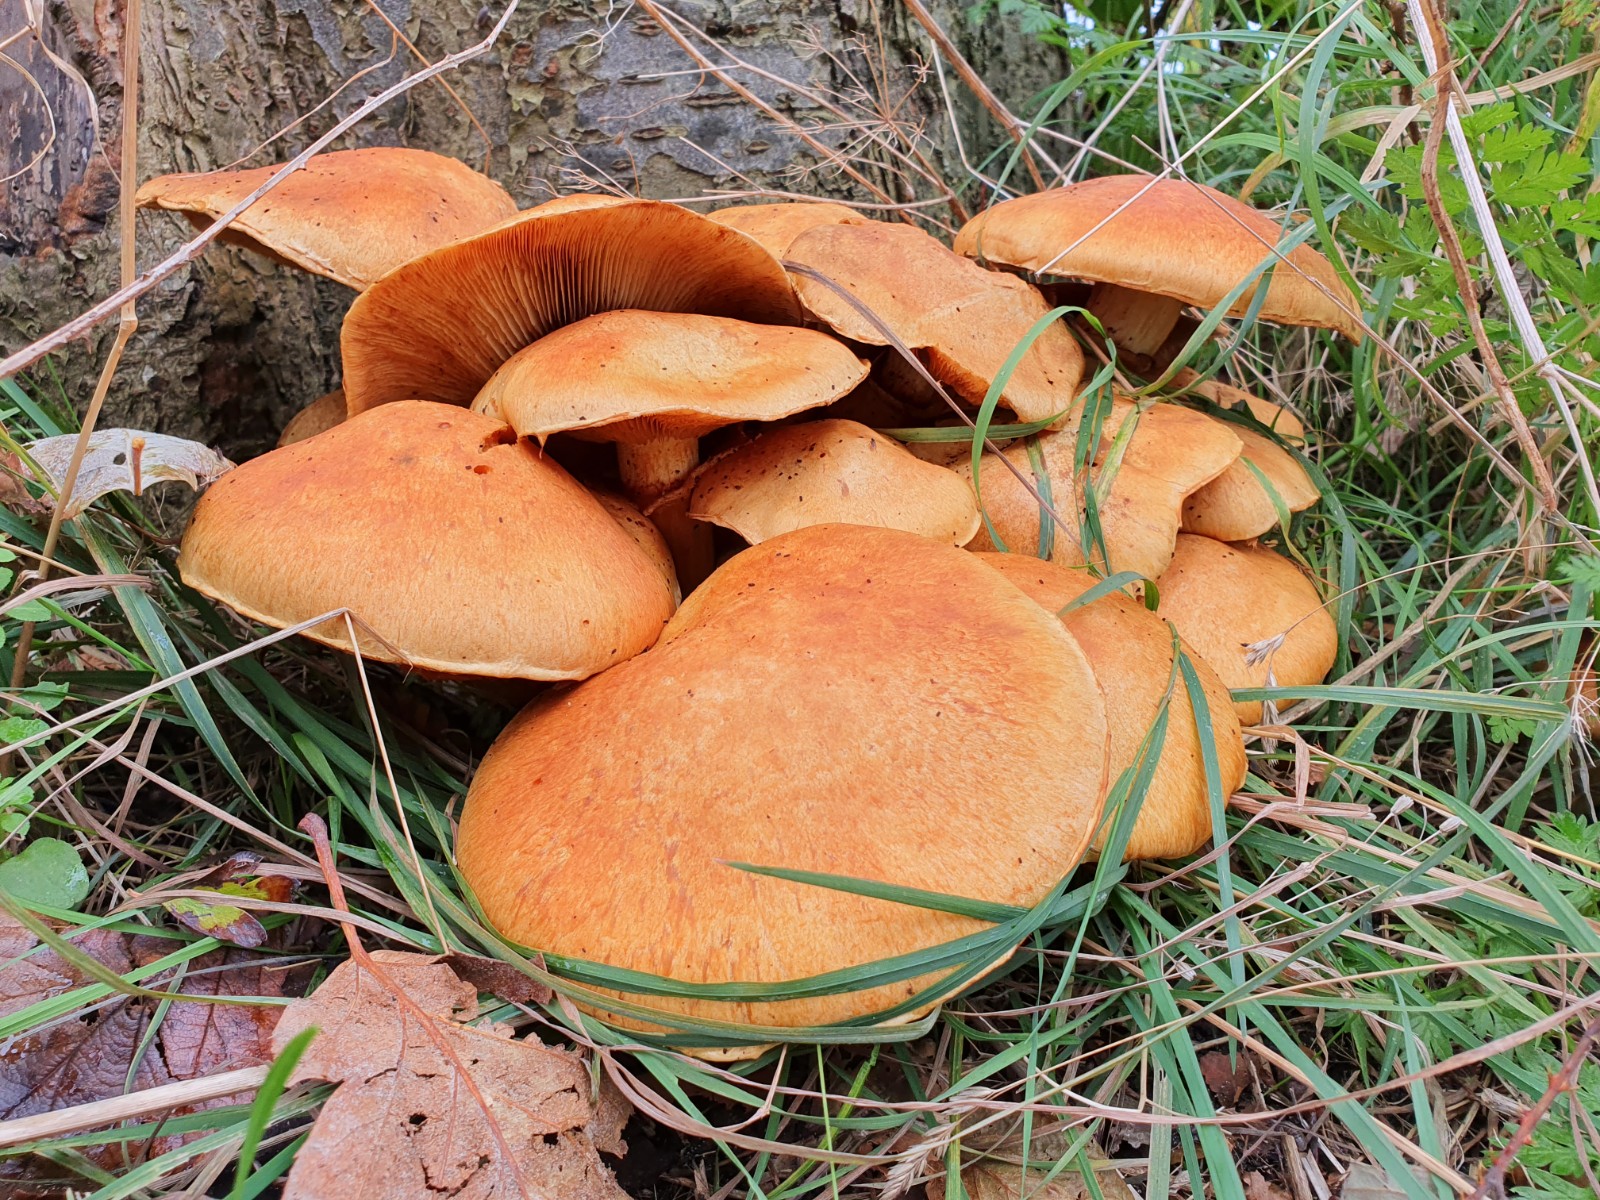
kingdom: Fungi
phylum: Basidiomycota
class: Agaricomycetes
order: Agaricales
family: Hymenogastraceae
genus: Gymnopilus
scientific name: Gymnopilus spectabilis
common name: fibret flammehat
